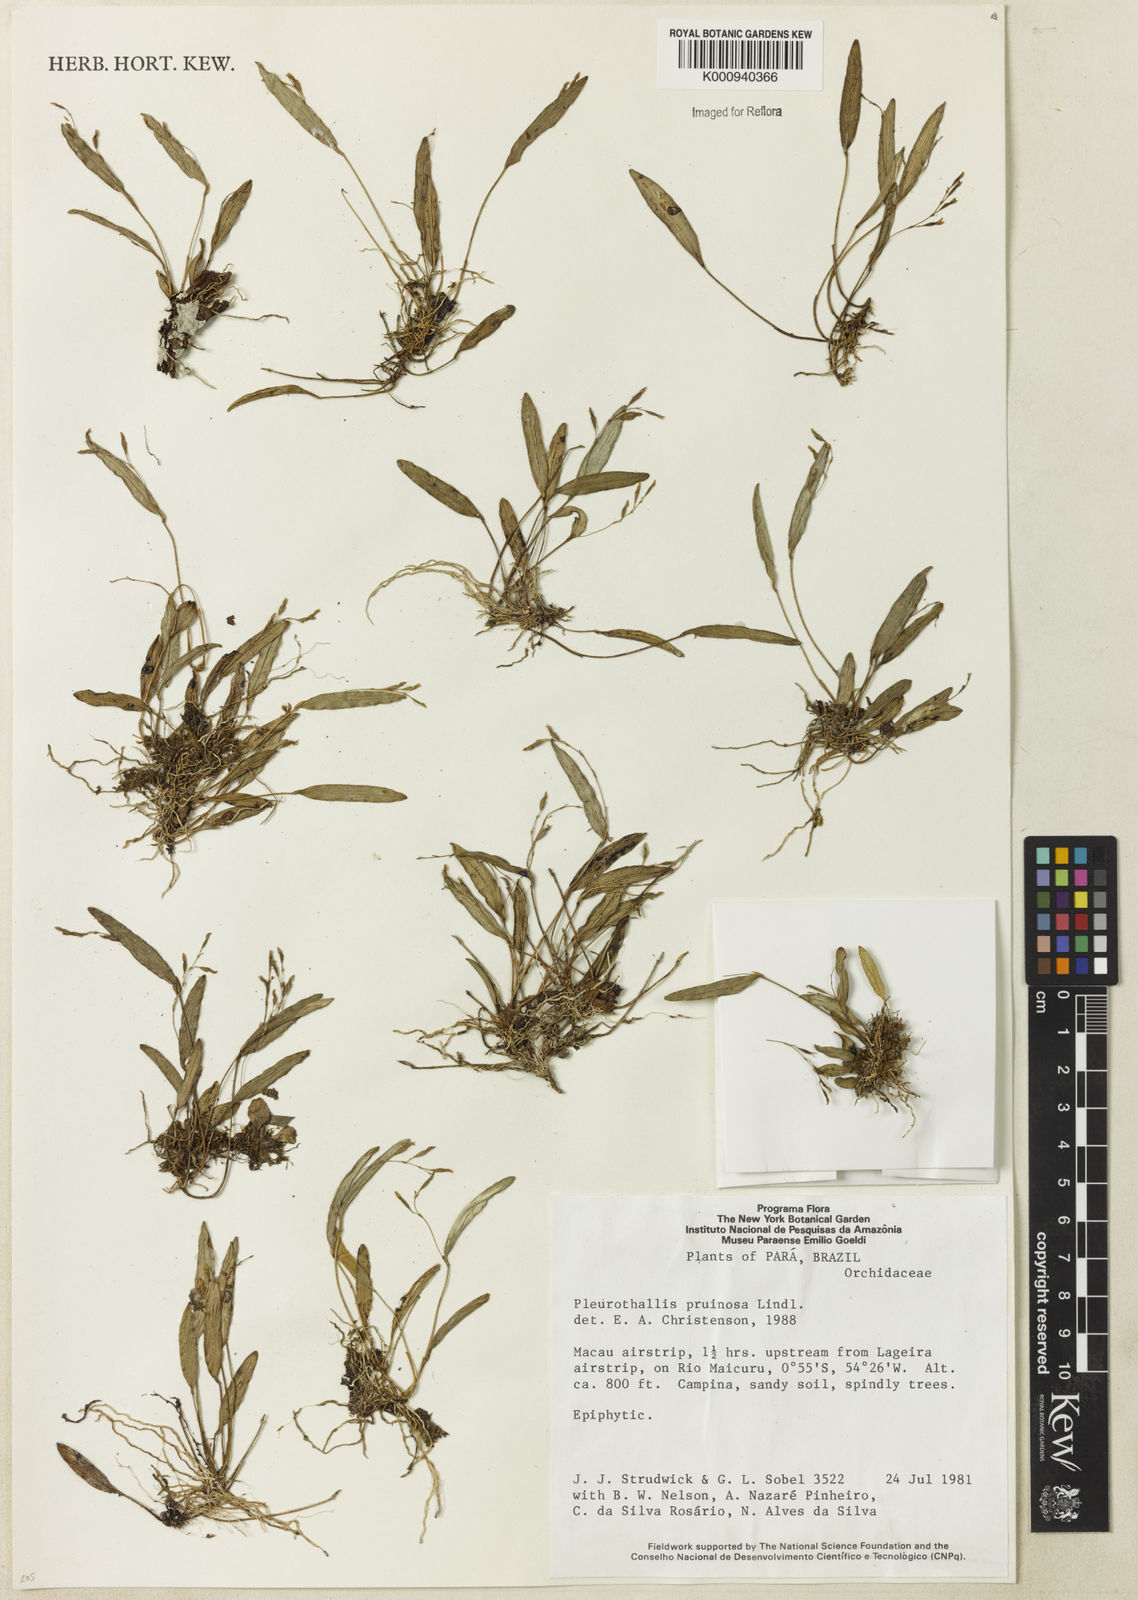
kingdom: Plantae
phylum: Tracheophyta
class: Liliopsida
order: Asparagales
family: Orchidaceae
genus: Pleurothallis
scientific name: Pleurothallis pruinosa
